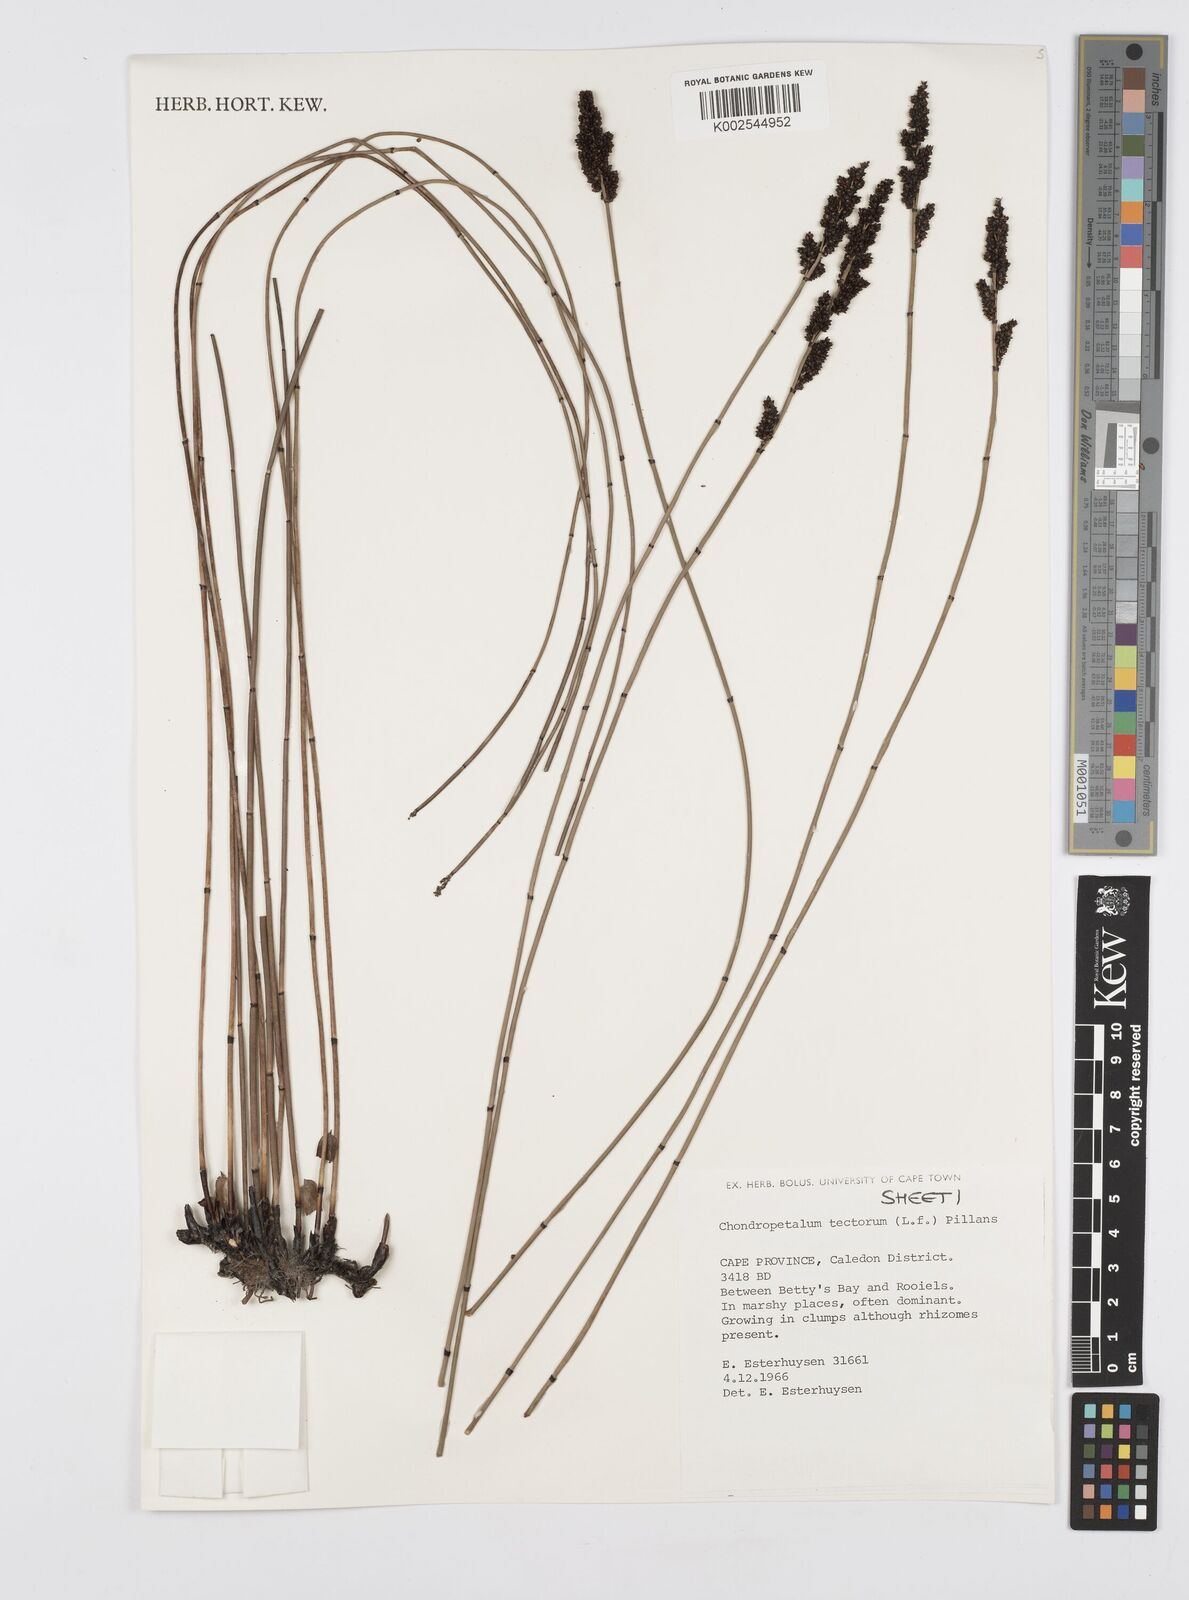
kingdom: Plantae
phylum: Tracheophyta
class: Liliopsida
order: Poales
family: Restionaceae
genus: Elegia
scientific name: Elegia tectorum
